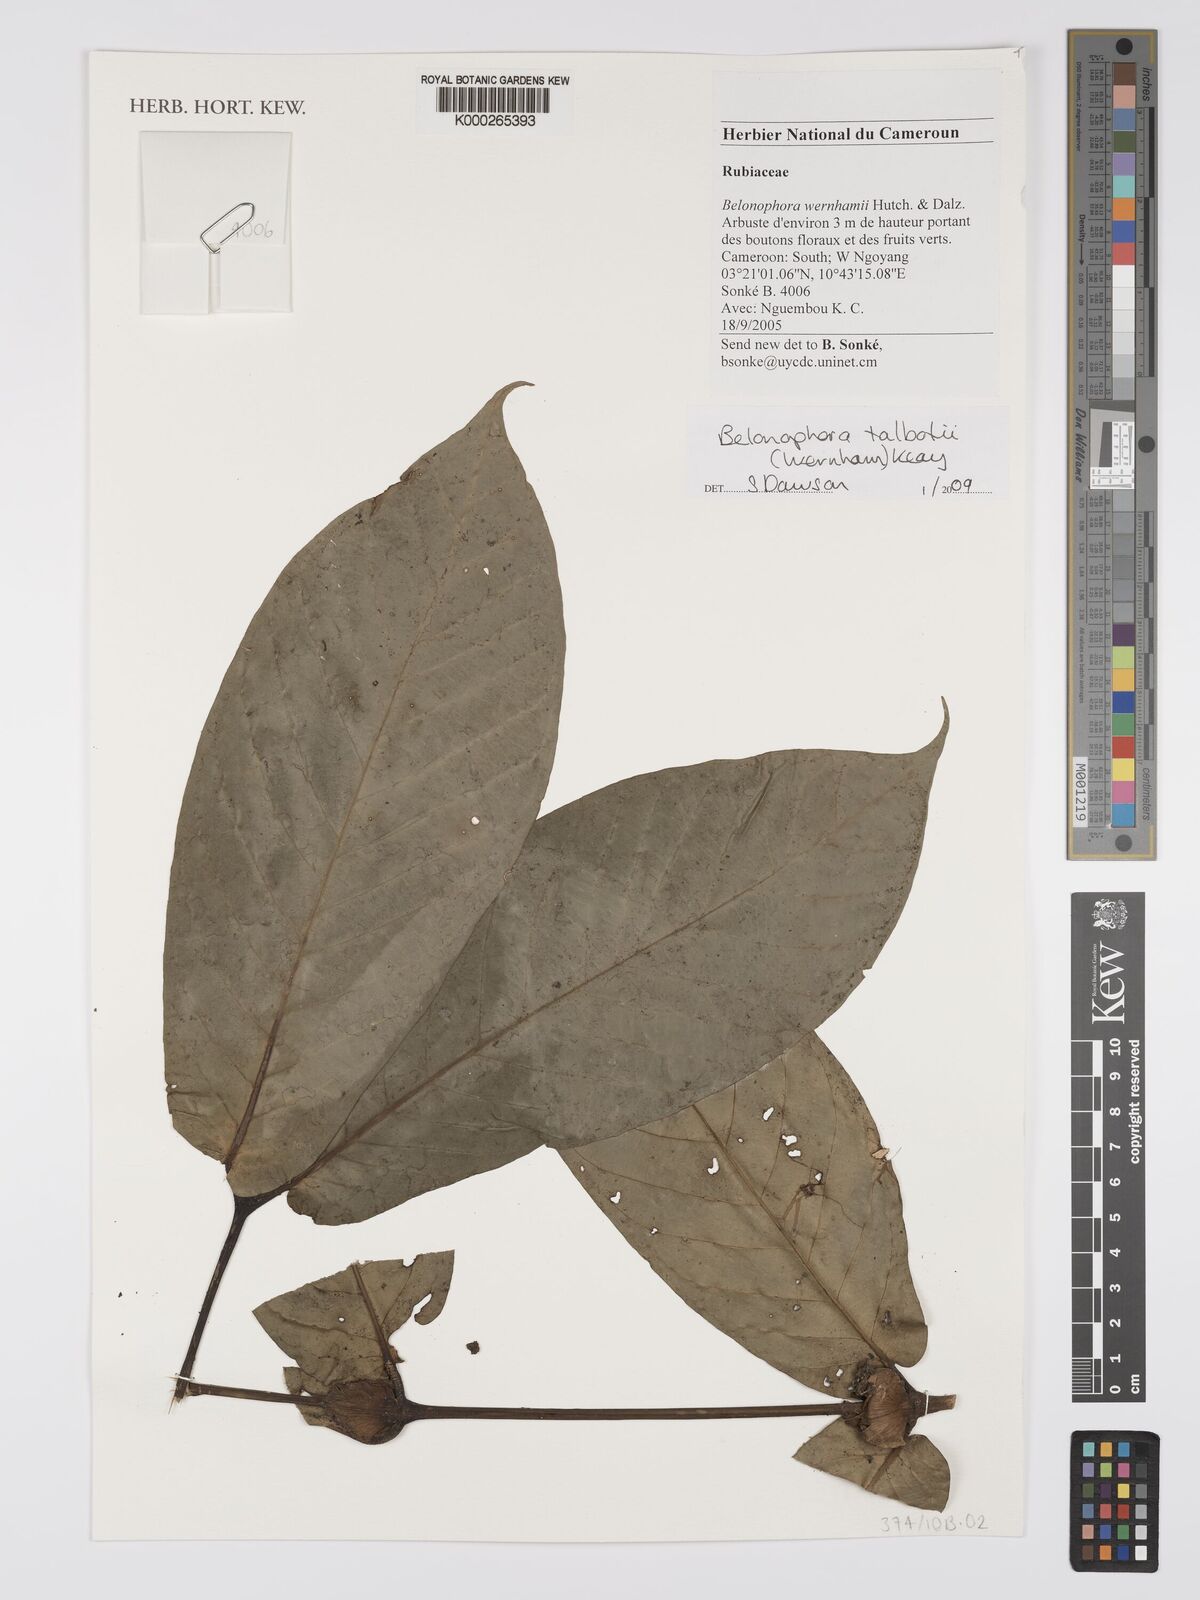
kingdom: Plantae
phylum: Tracheophyta
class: Magnoliopsida
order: Gentianales
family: Rubiaceae
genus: Belonophora
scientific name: Belonophora talbotii
